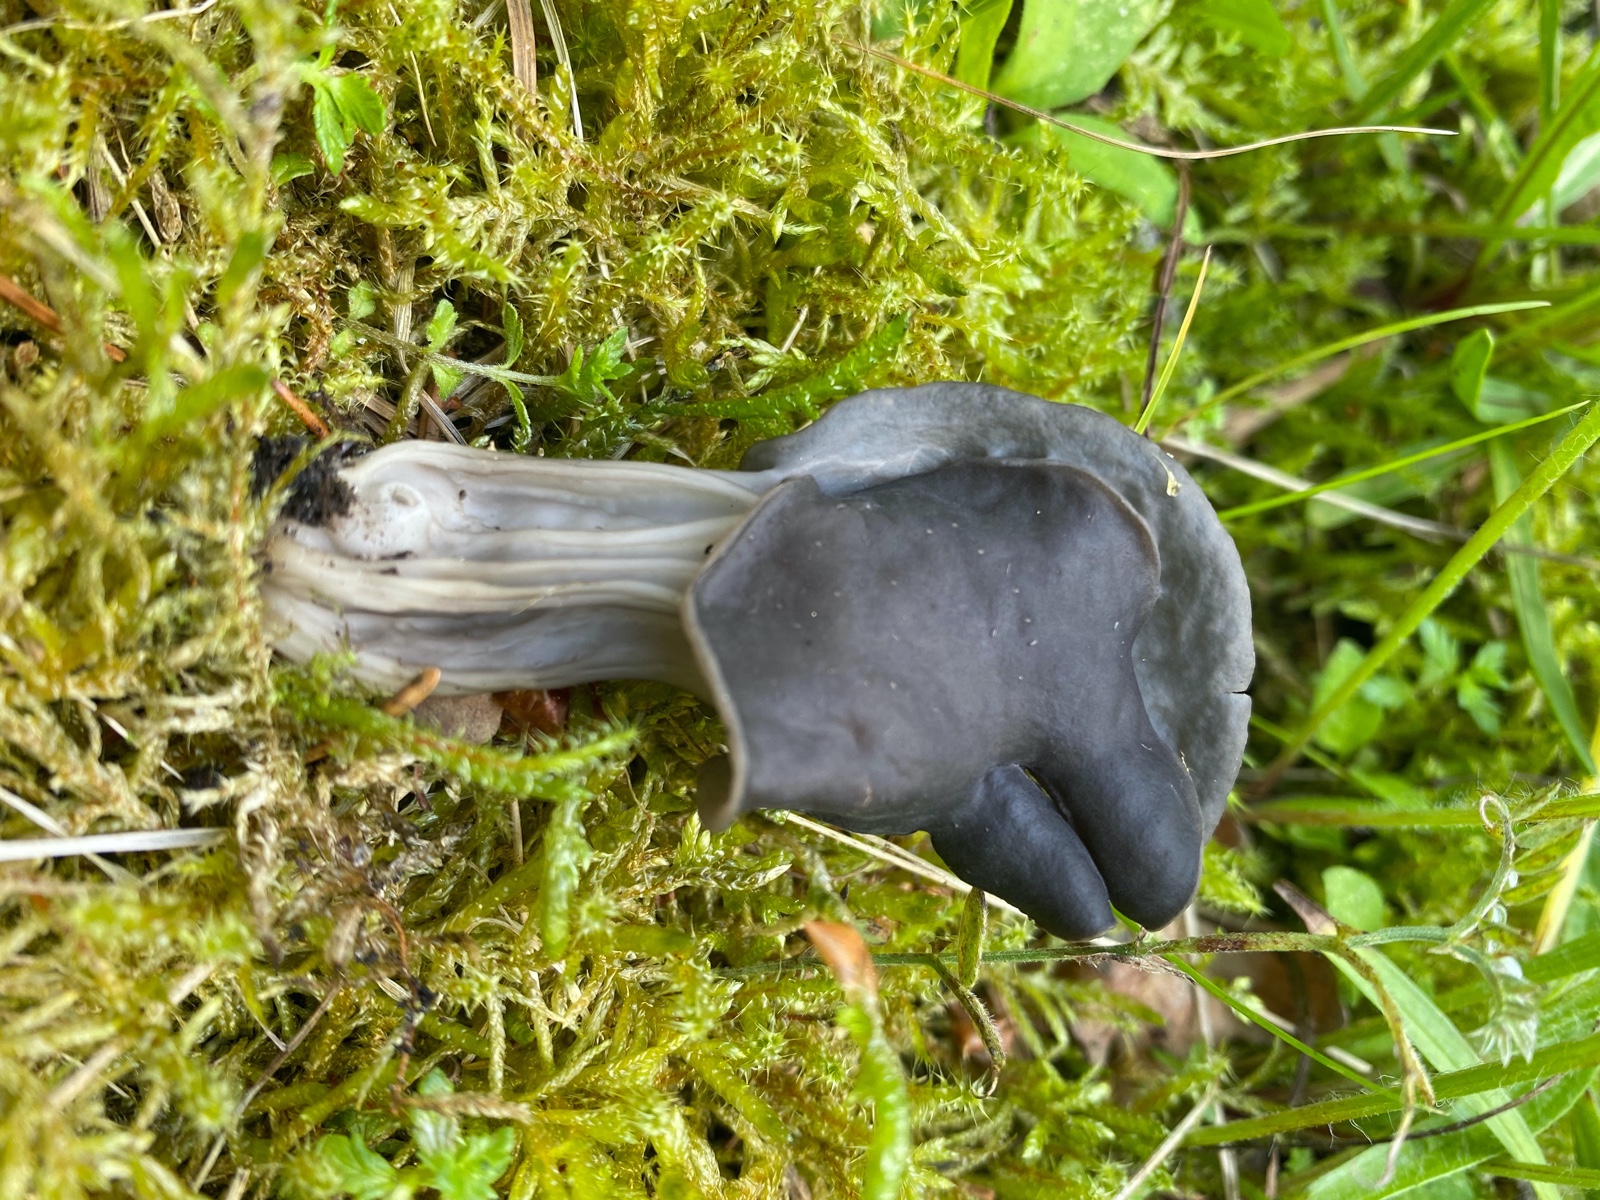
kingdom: Fungi
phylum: Ascomycota
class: Pezizomycetes
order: Pezizales
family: Helvellaceae
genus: Helvella
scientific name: Helvella lacunosa
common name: grubet foldhat
